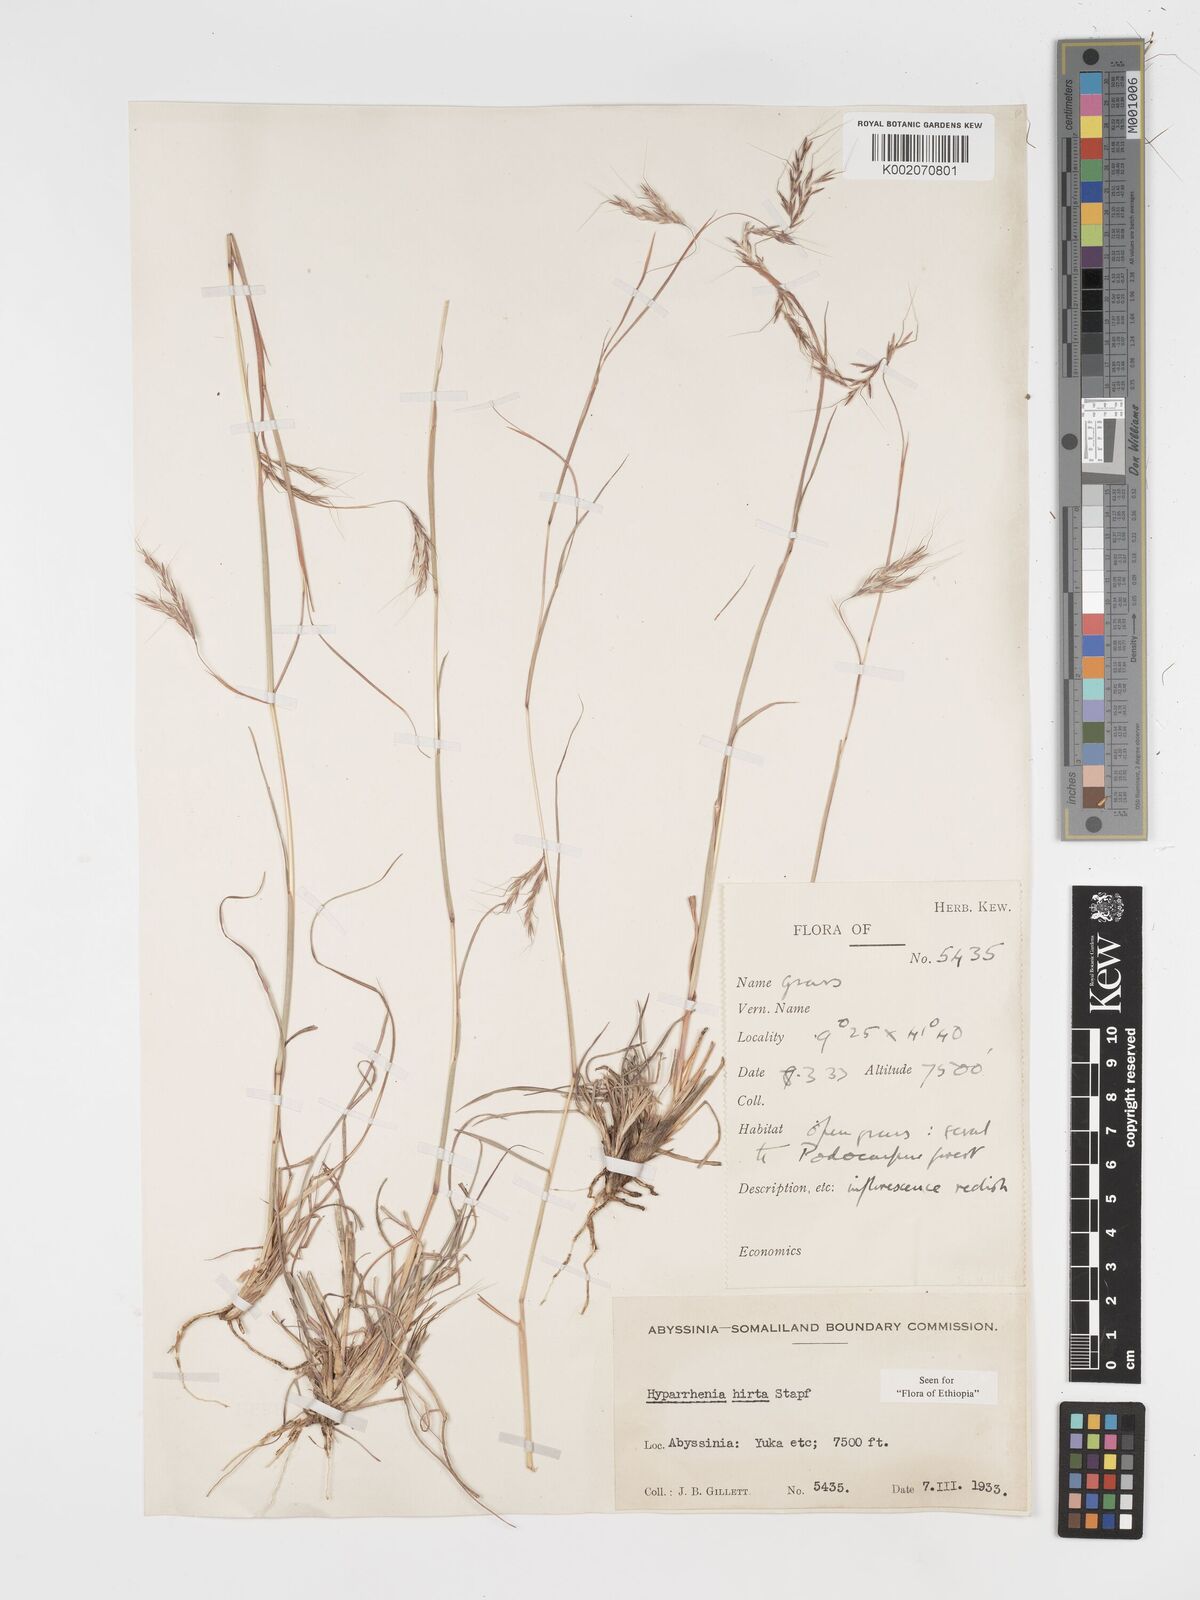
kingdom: Plantae
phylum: Tracheophyta
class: Liliopsida
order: Poales
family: Poaceae
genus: Hyparrhenia
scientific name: Hyparrhenia hirta
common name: Thatching grass
